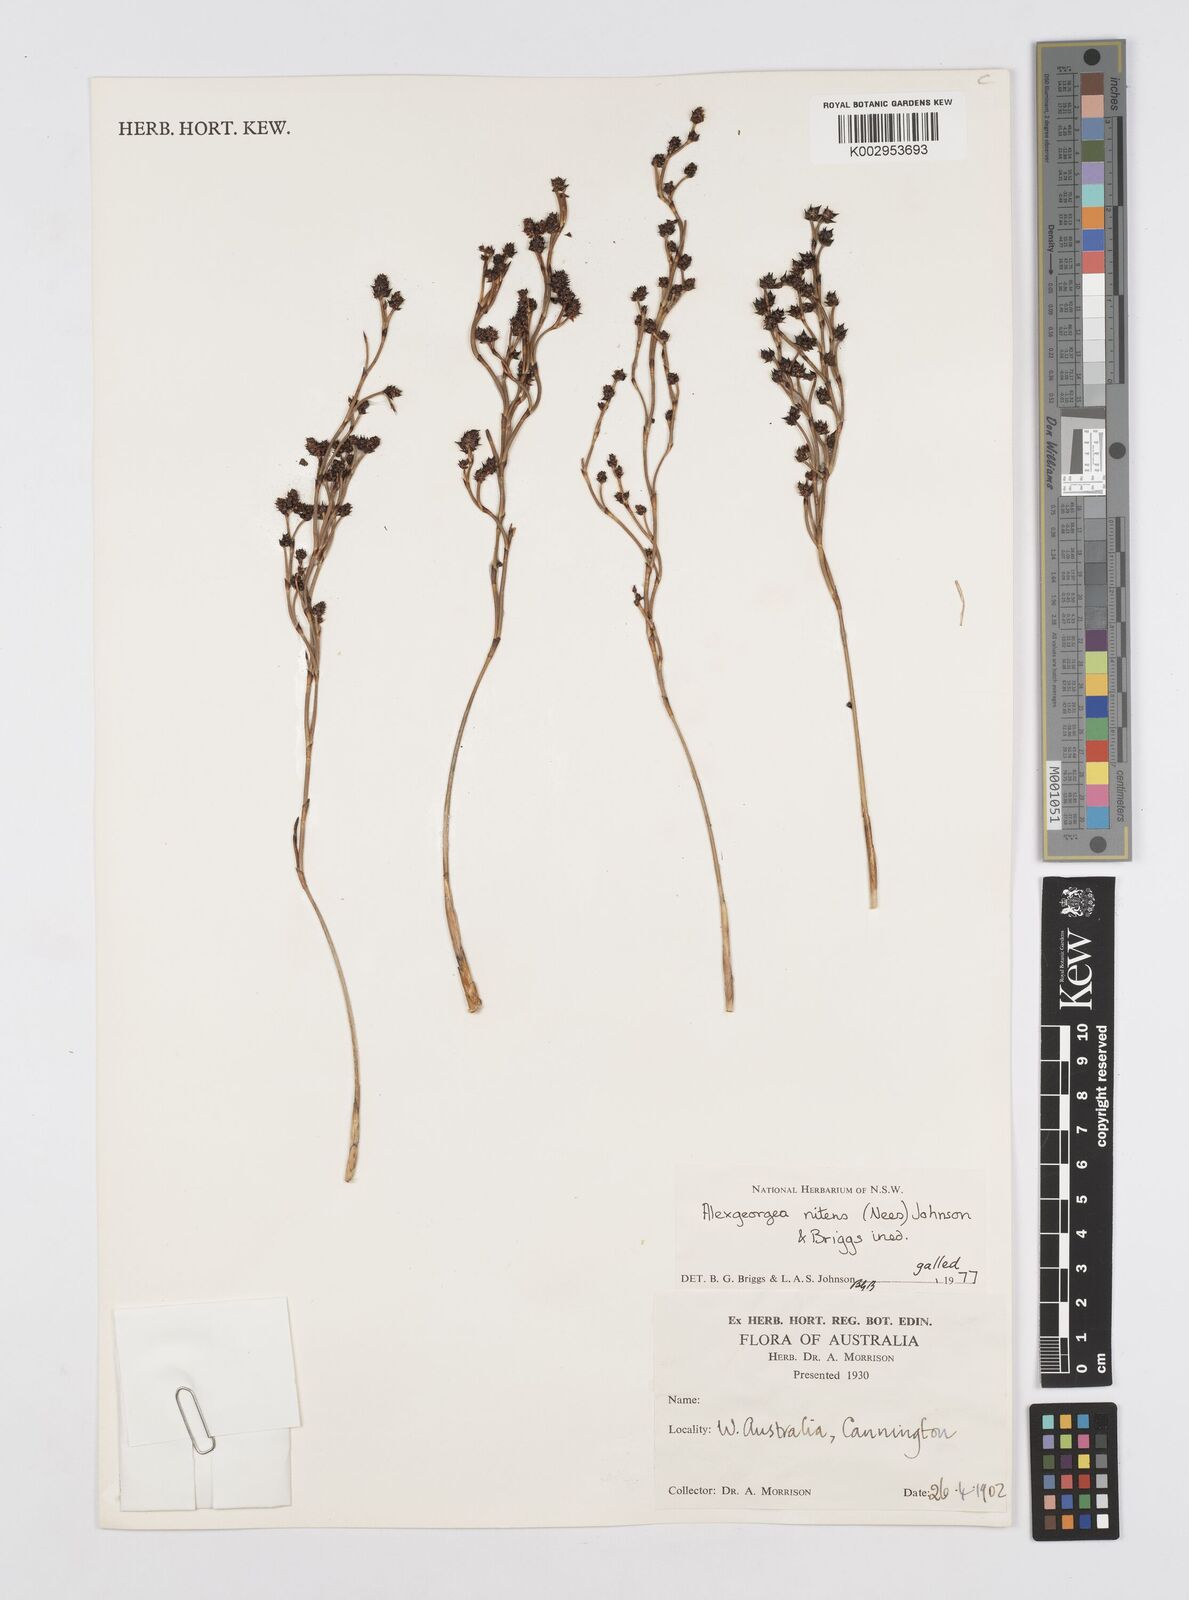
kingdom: Plantae
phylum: Tracheophyta
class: Liliopsida
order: Poales
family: Restionaceae
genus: Alexgeorgea
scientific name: Alexgeorgea nitens
